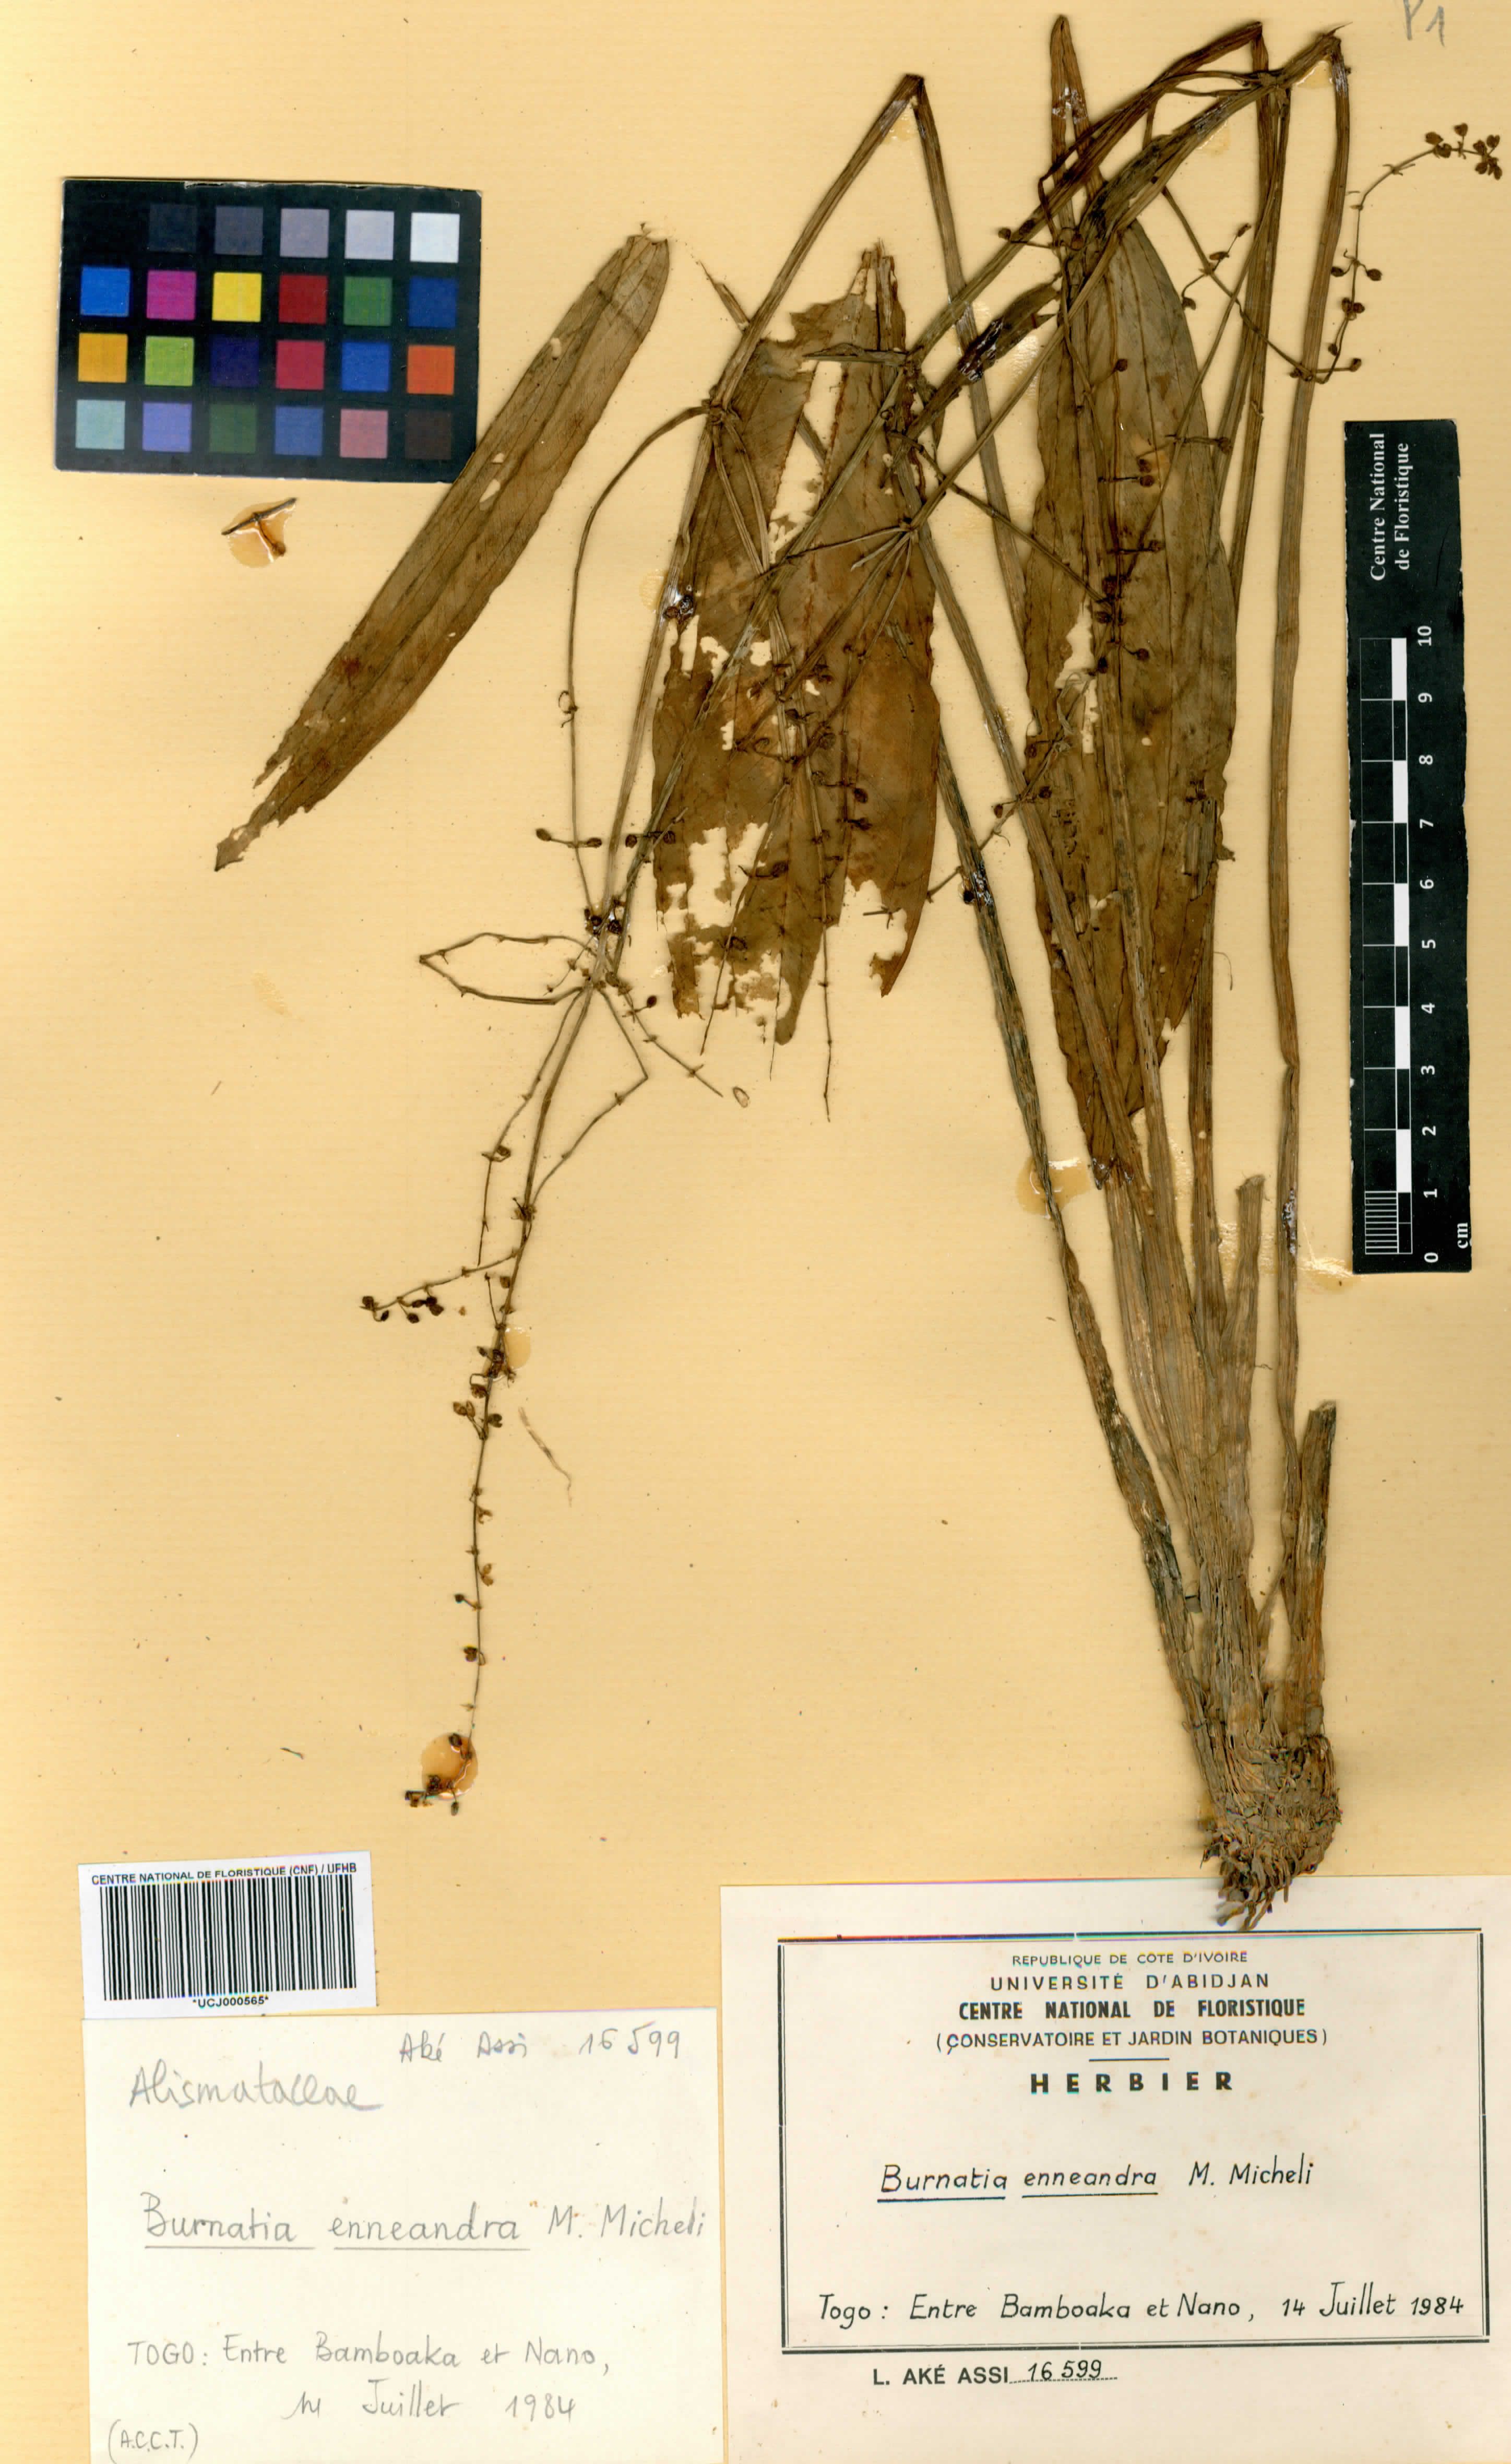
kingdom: Plantae
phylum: Tracheophyta
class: Liliopsida
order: Alismatales
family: Alismataceae
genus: Burnatia
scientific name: Burnatia enneandra
